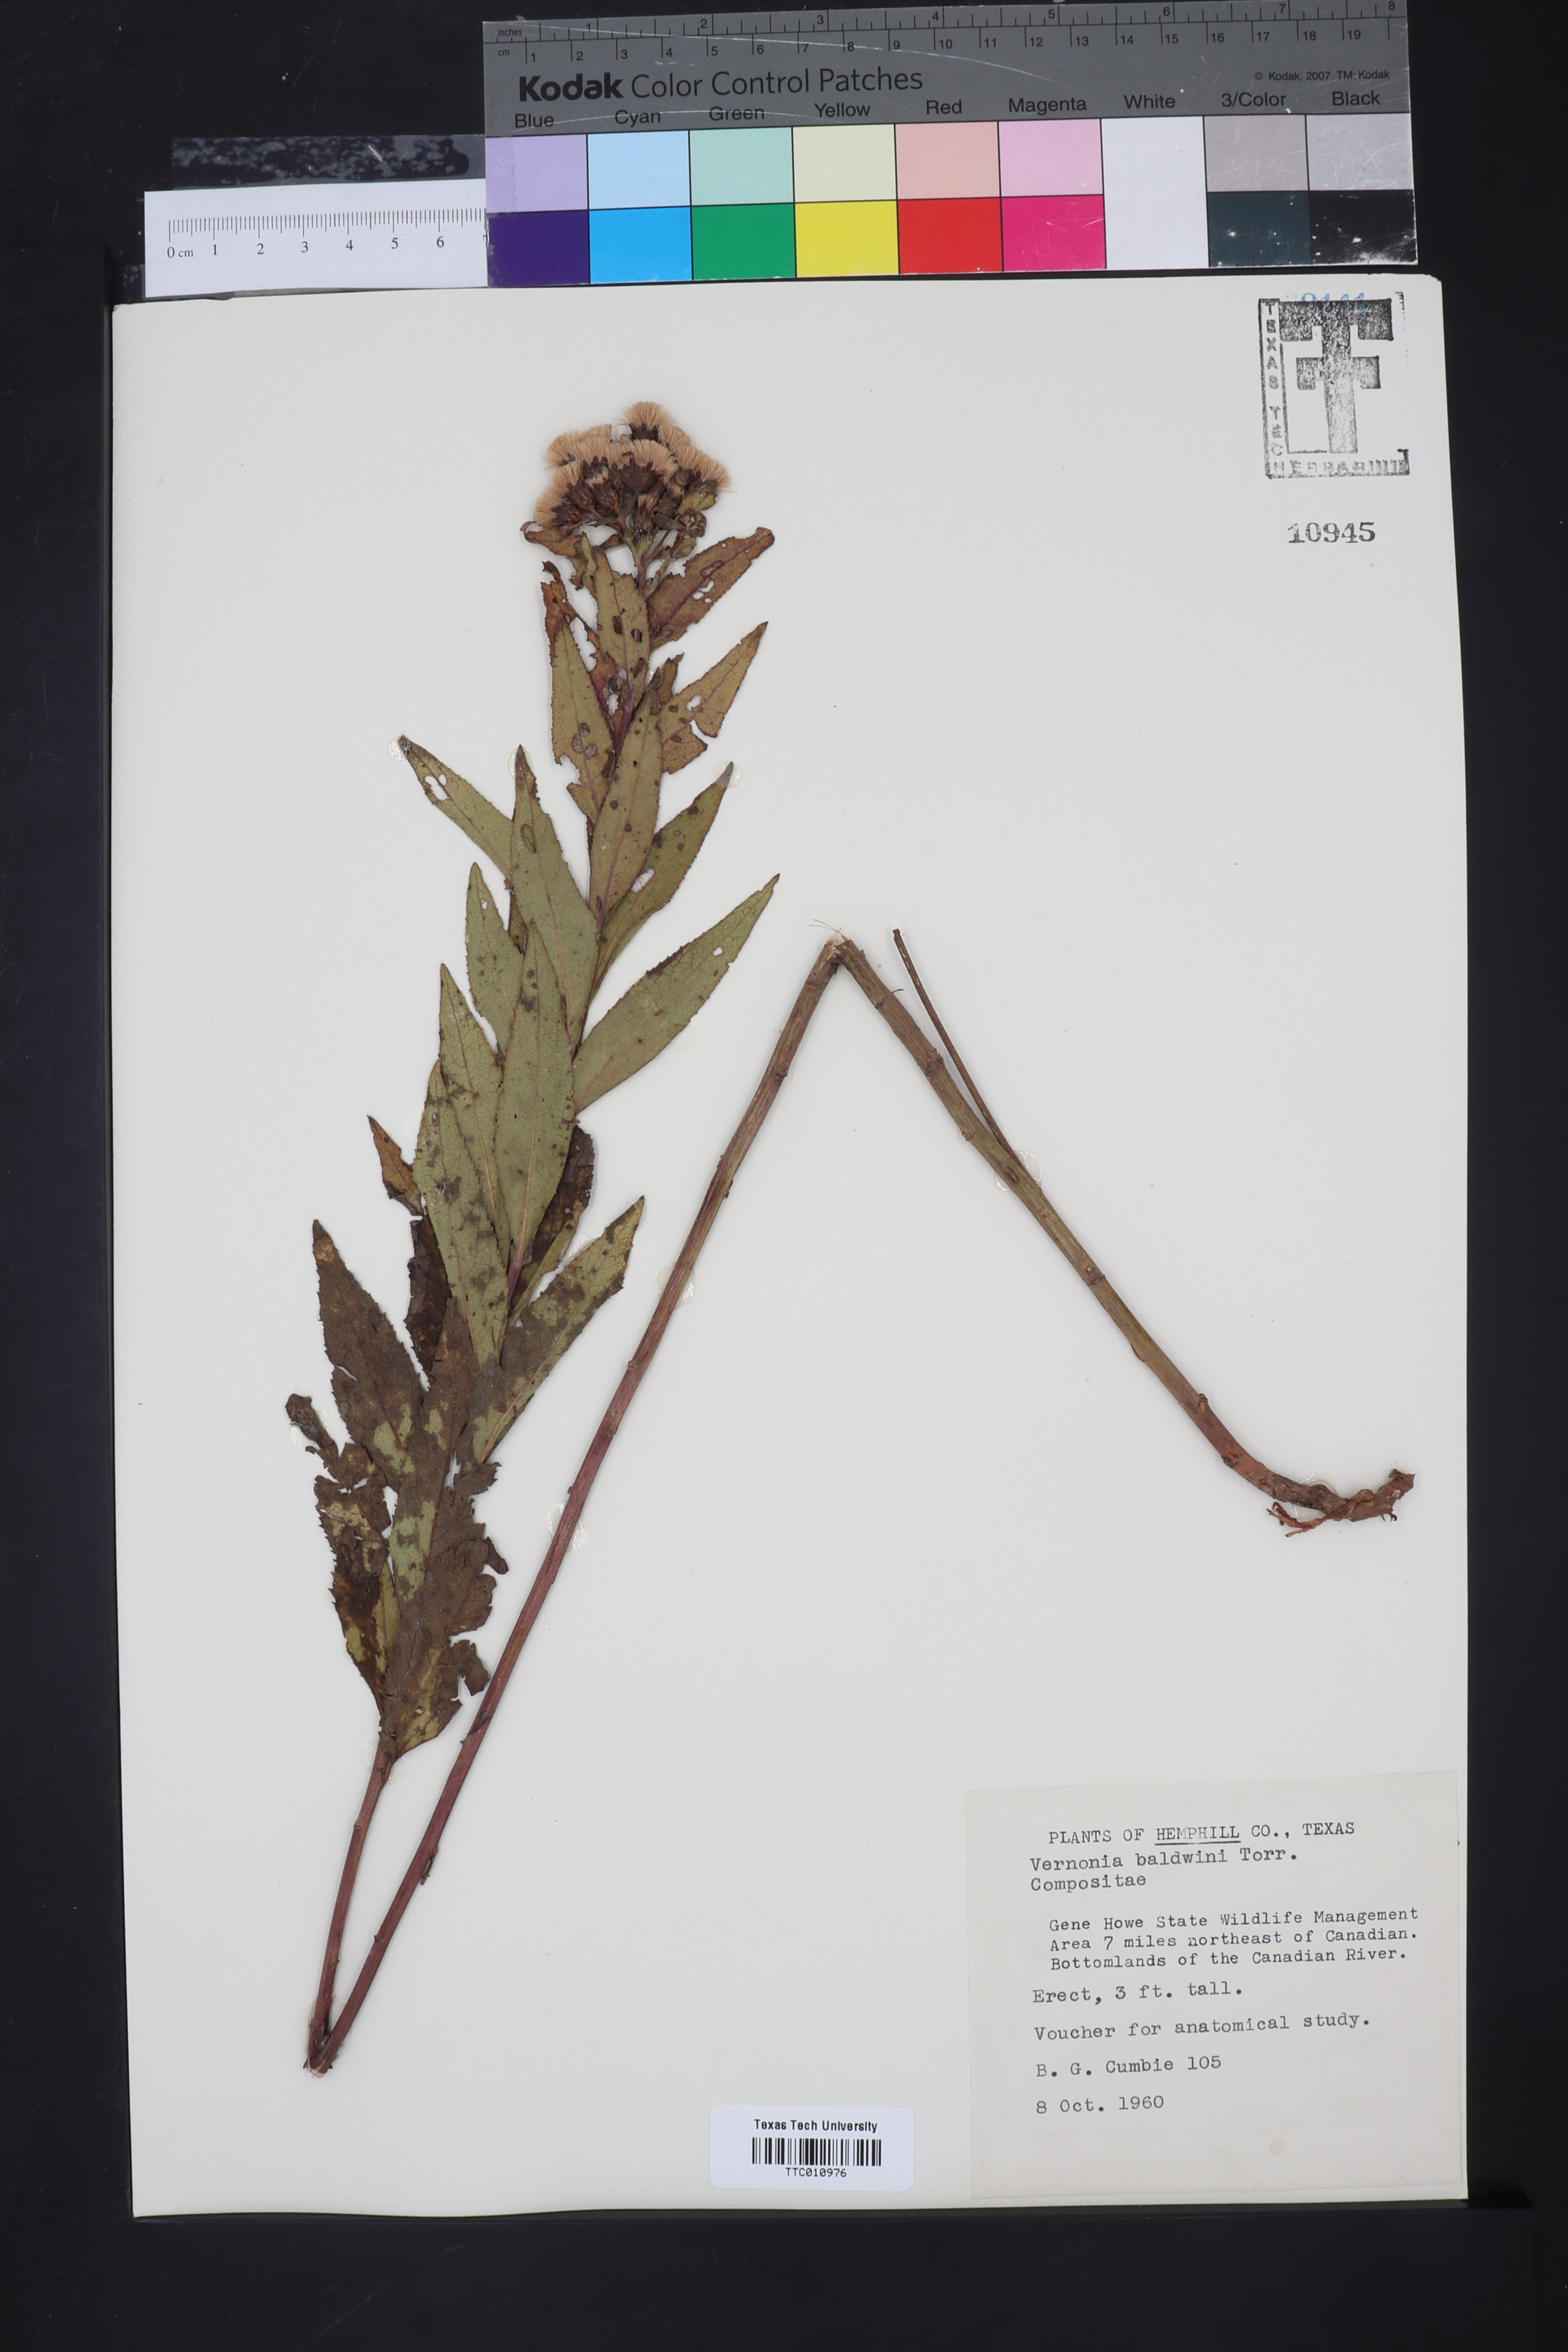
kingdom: Plantae
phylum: Tracheophyta
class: Magnoliopsida
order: Asterales
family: Asteraceae
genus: Vernonia
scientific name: Vernonia baldwinii
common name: Western ironweed
